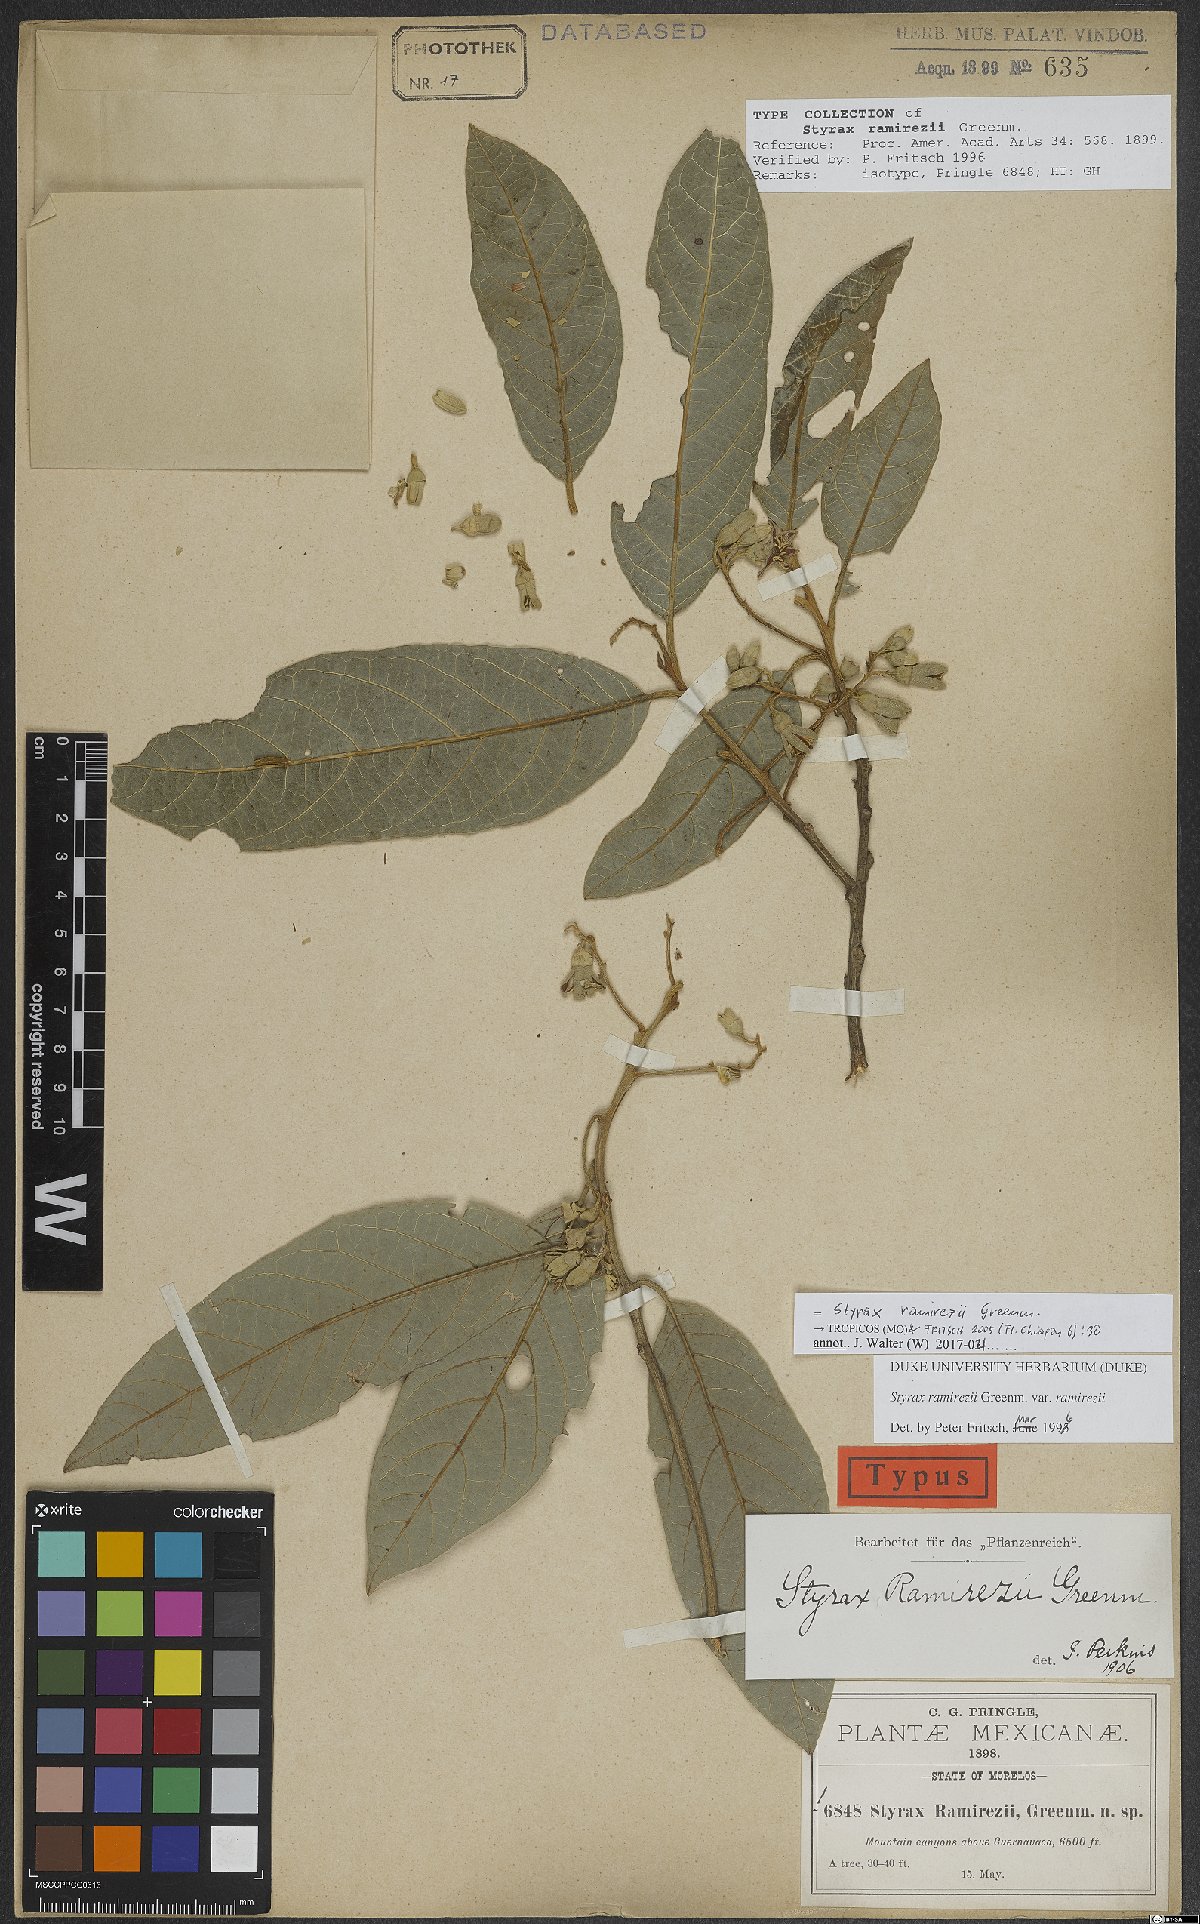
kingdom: Plantae
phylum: Tracheophyta
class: Magnoliopsida
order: Ericales
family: Styracaceae
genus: Styrax
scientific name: Styrax argenteus
